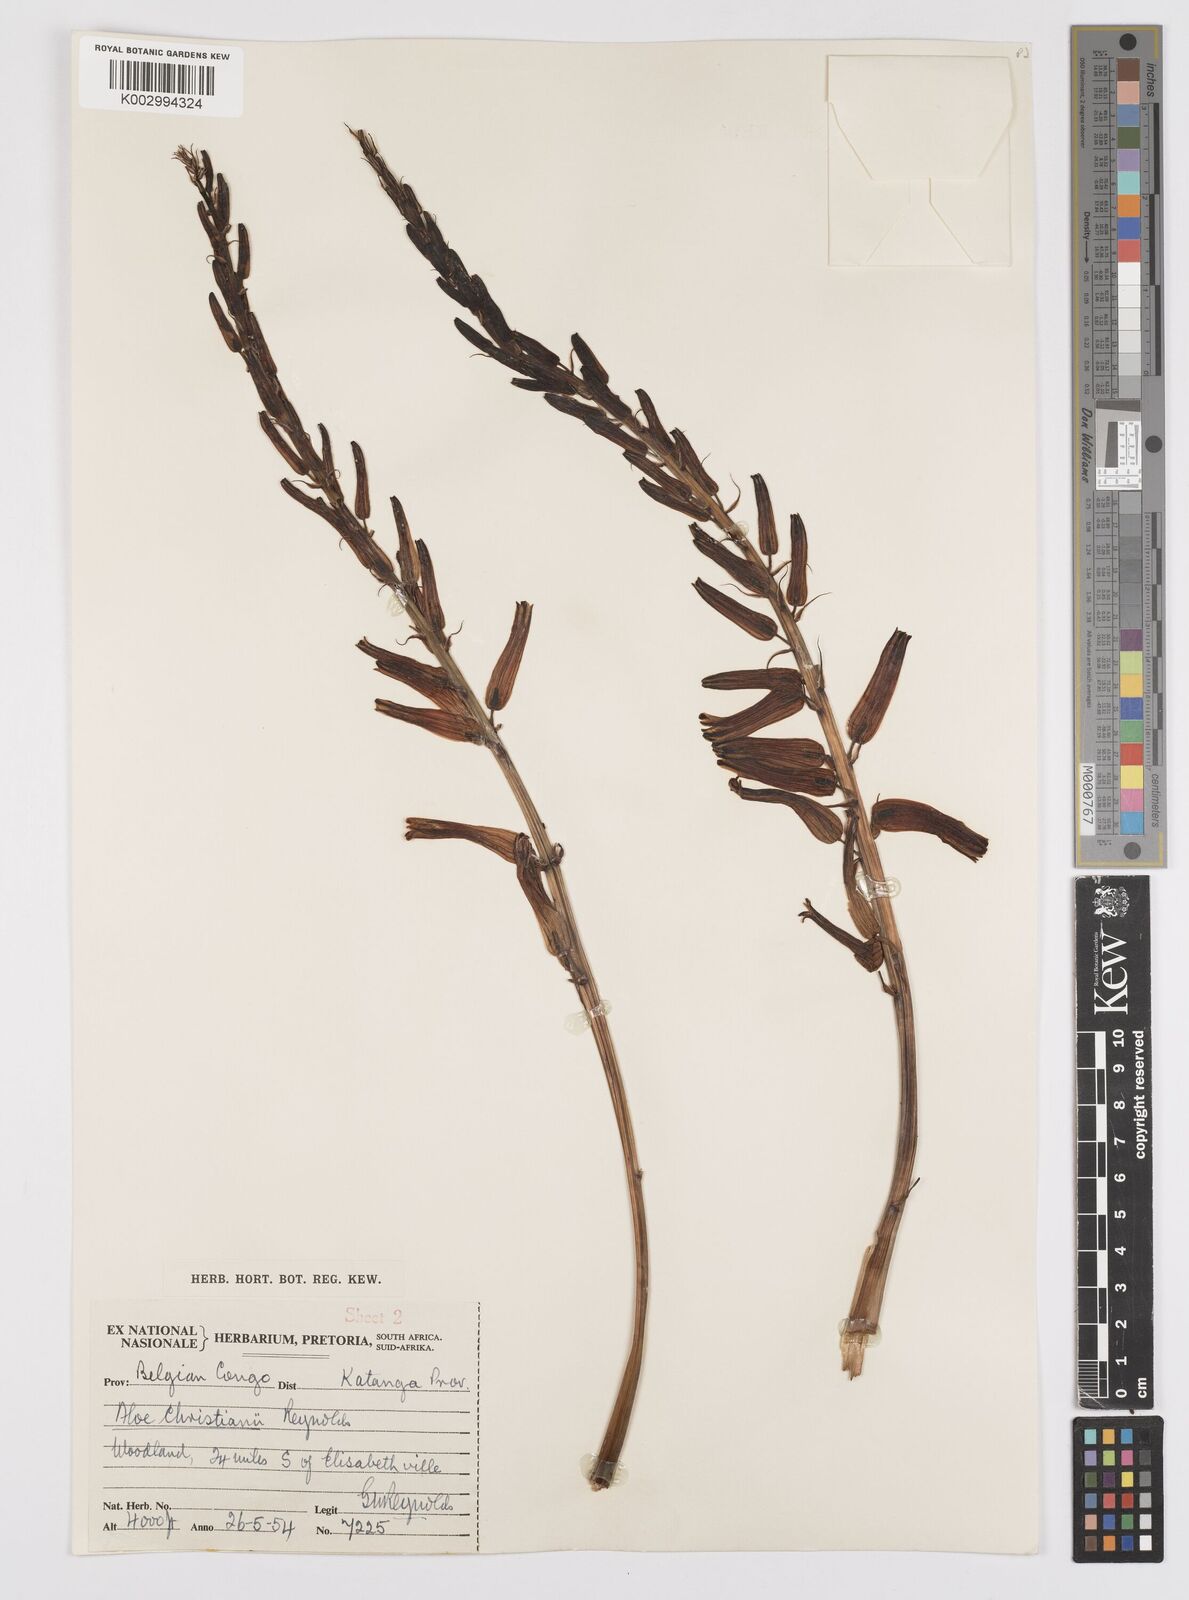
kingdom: Plantae
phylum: Tracheophyta
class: Liliopsida
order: Asparagales
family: Asphodelaceae
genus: Aloe
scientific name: Aloe christianii
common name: Basil christian's aloe
